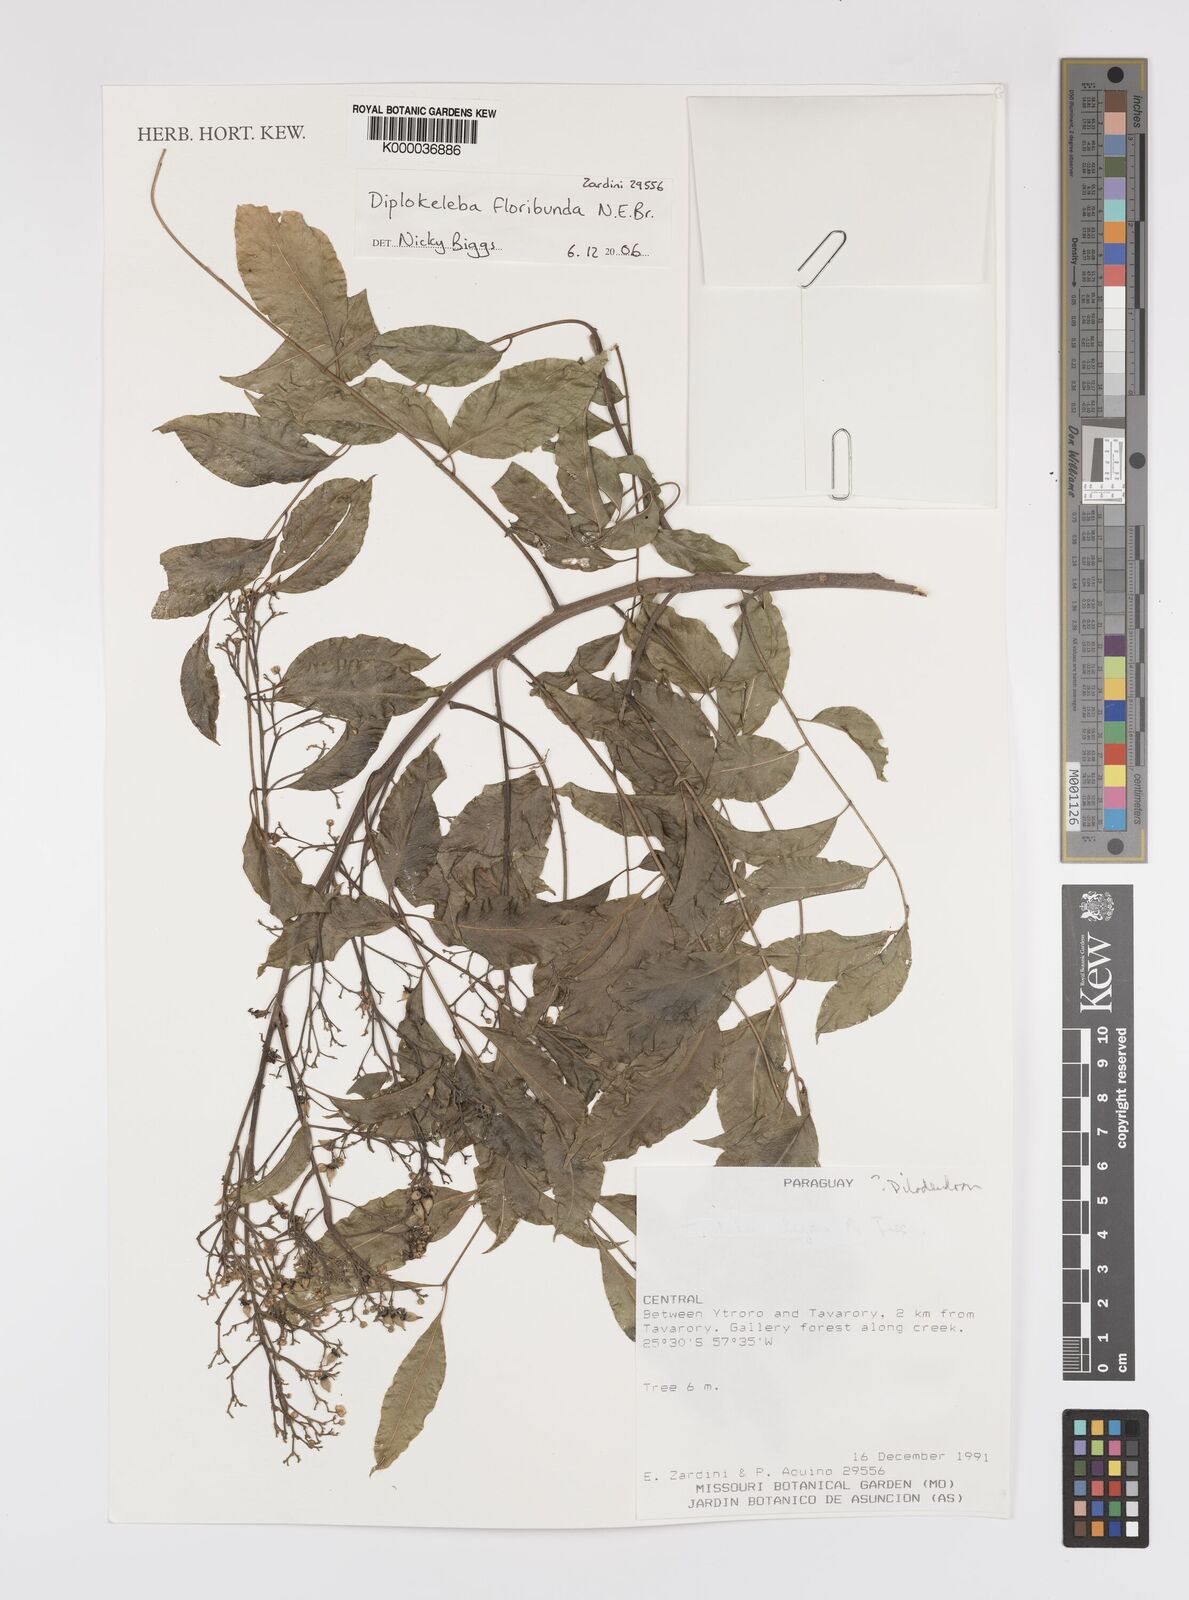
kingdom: Plantae
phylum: Tracheophyta
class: Magnoliopsida
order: Sapindales
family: Sapindaceae
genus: Diplokeleba
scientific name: Diplokeleba floribunda
